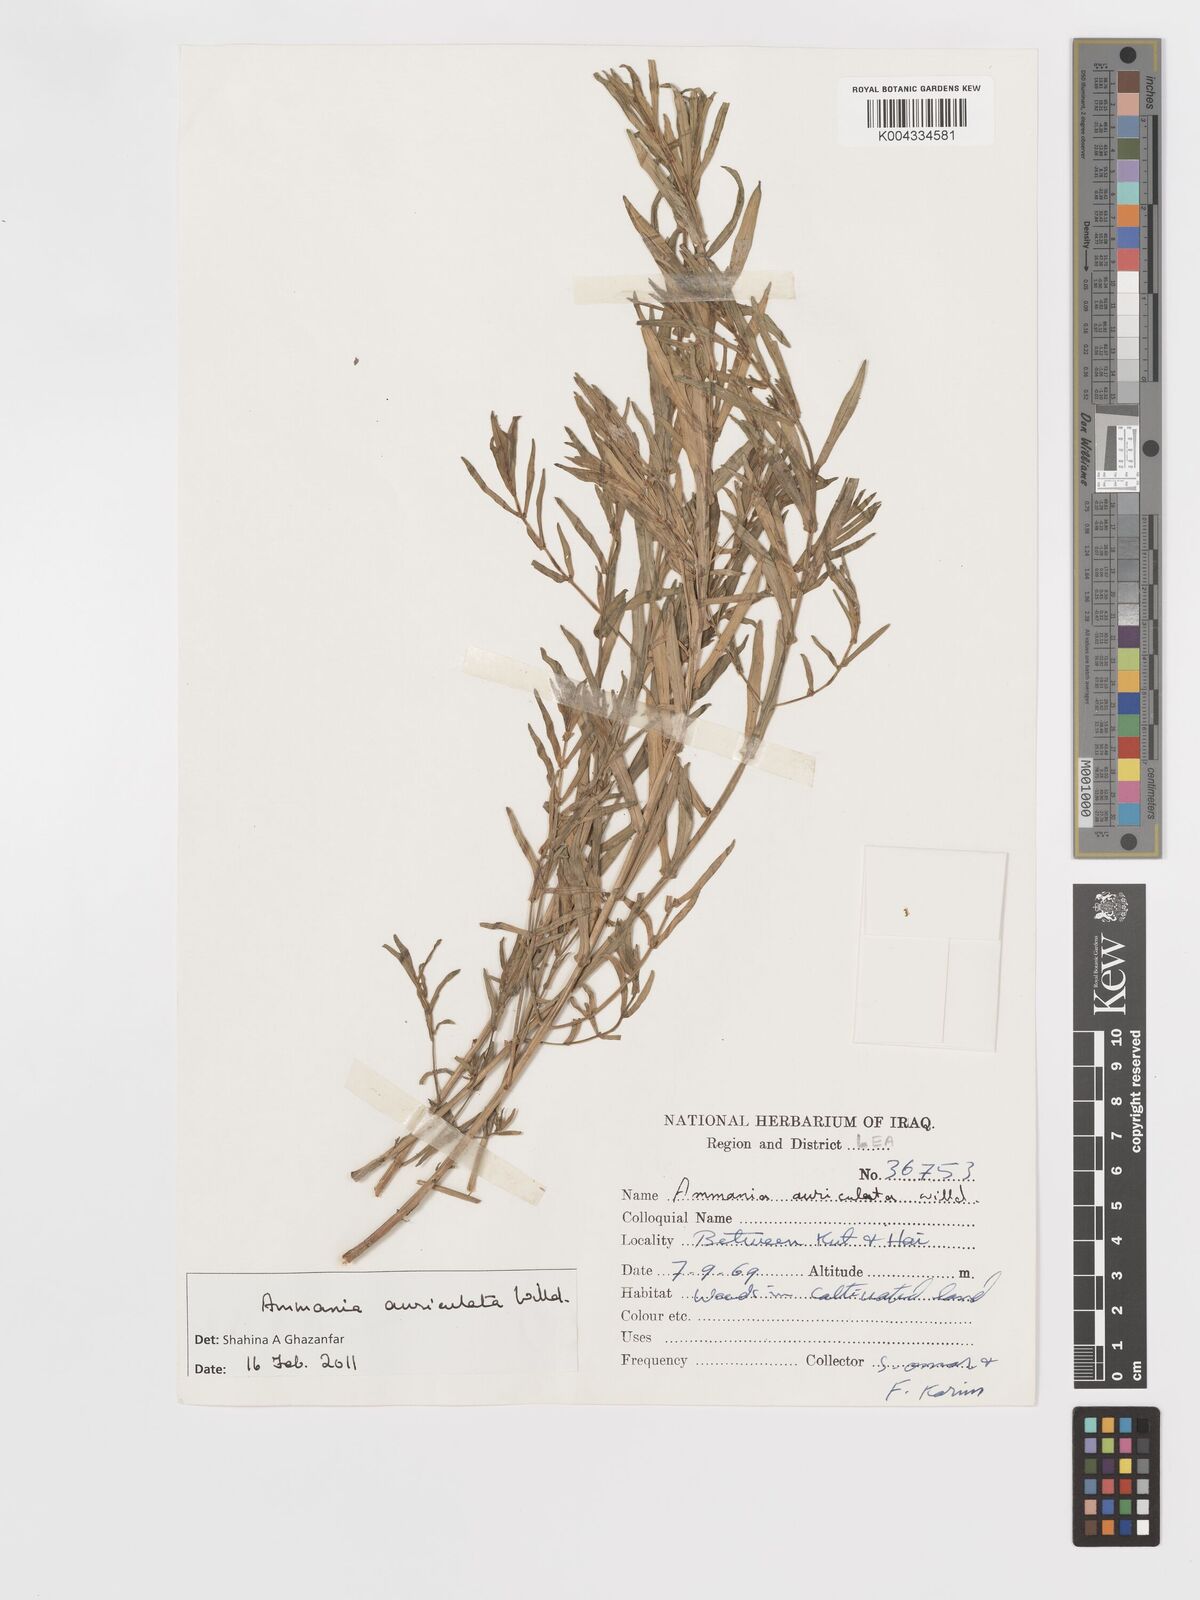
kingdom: Plantae
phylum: Tracheophyta
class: Magnoliopsida
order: Myrtales
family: Lythraceae
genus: Ammannia
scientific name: Ammannia auriculata
